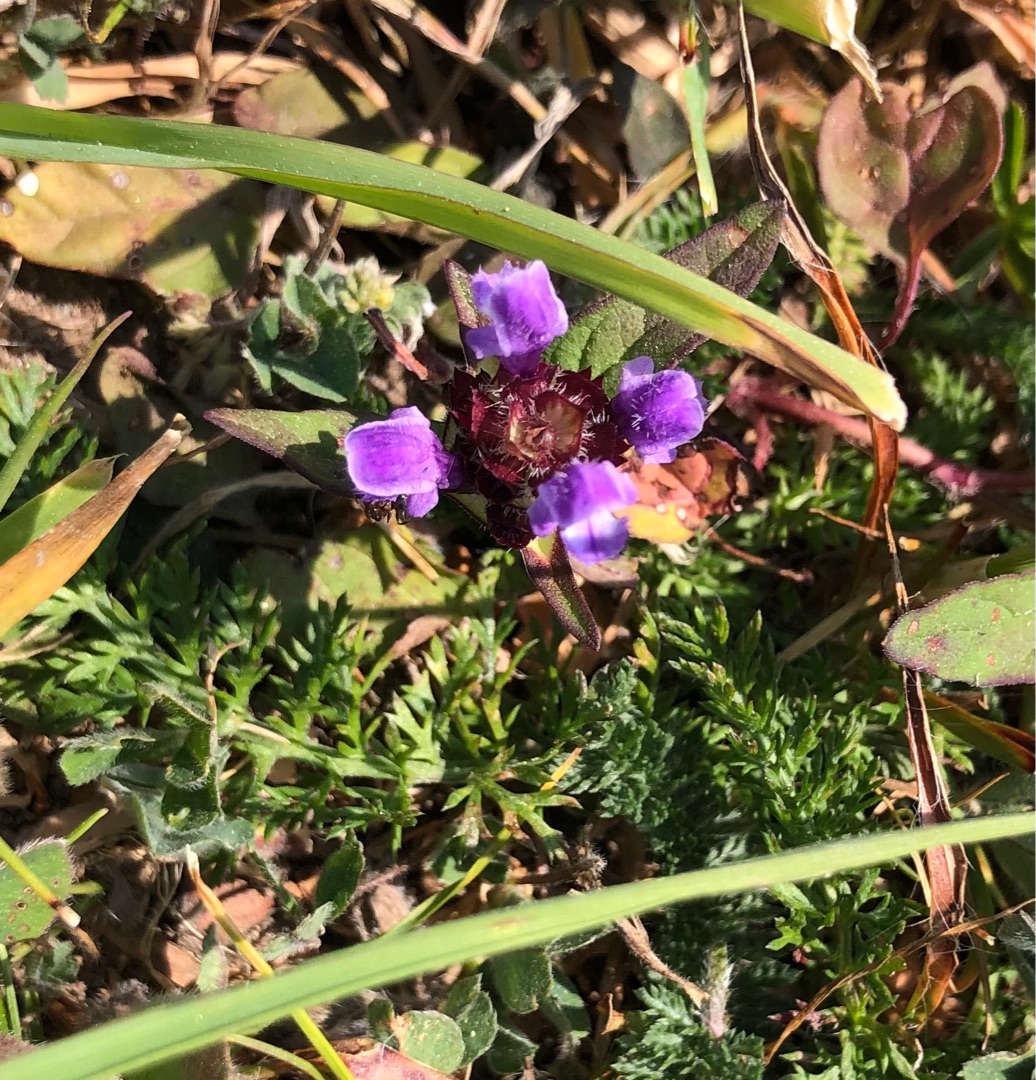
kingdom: Plantae
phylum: Tracheophyta
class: Magnoliopsida
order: Lamiales
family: Lamiaceae
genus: Prunella
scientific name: Prunella vulgaris
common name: Almindelig brunelle
